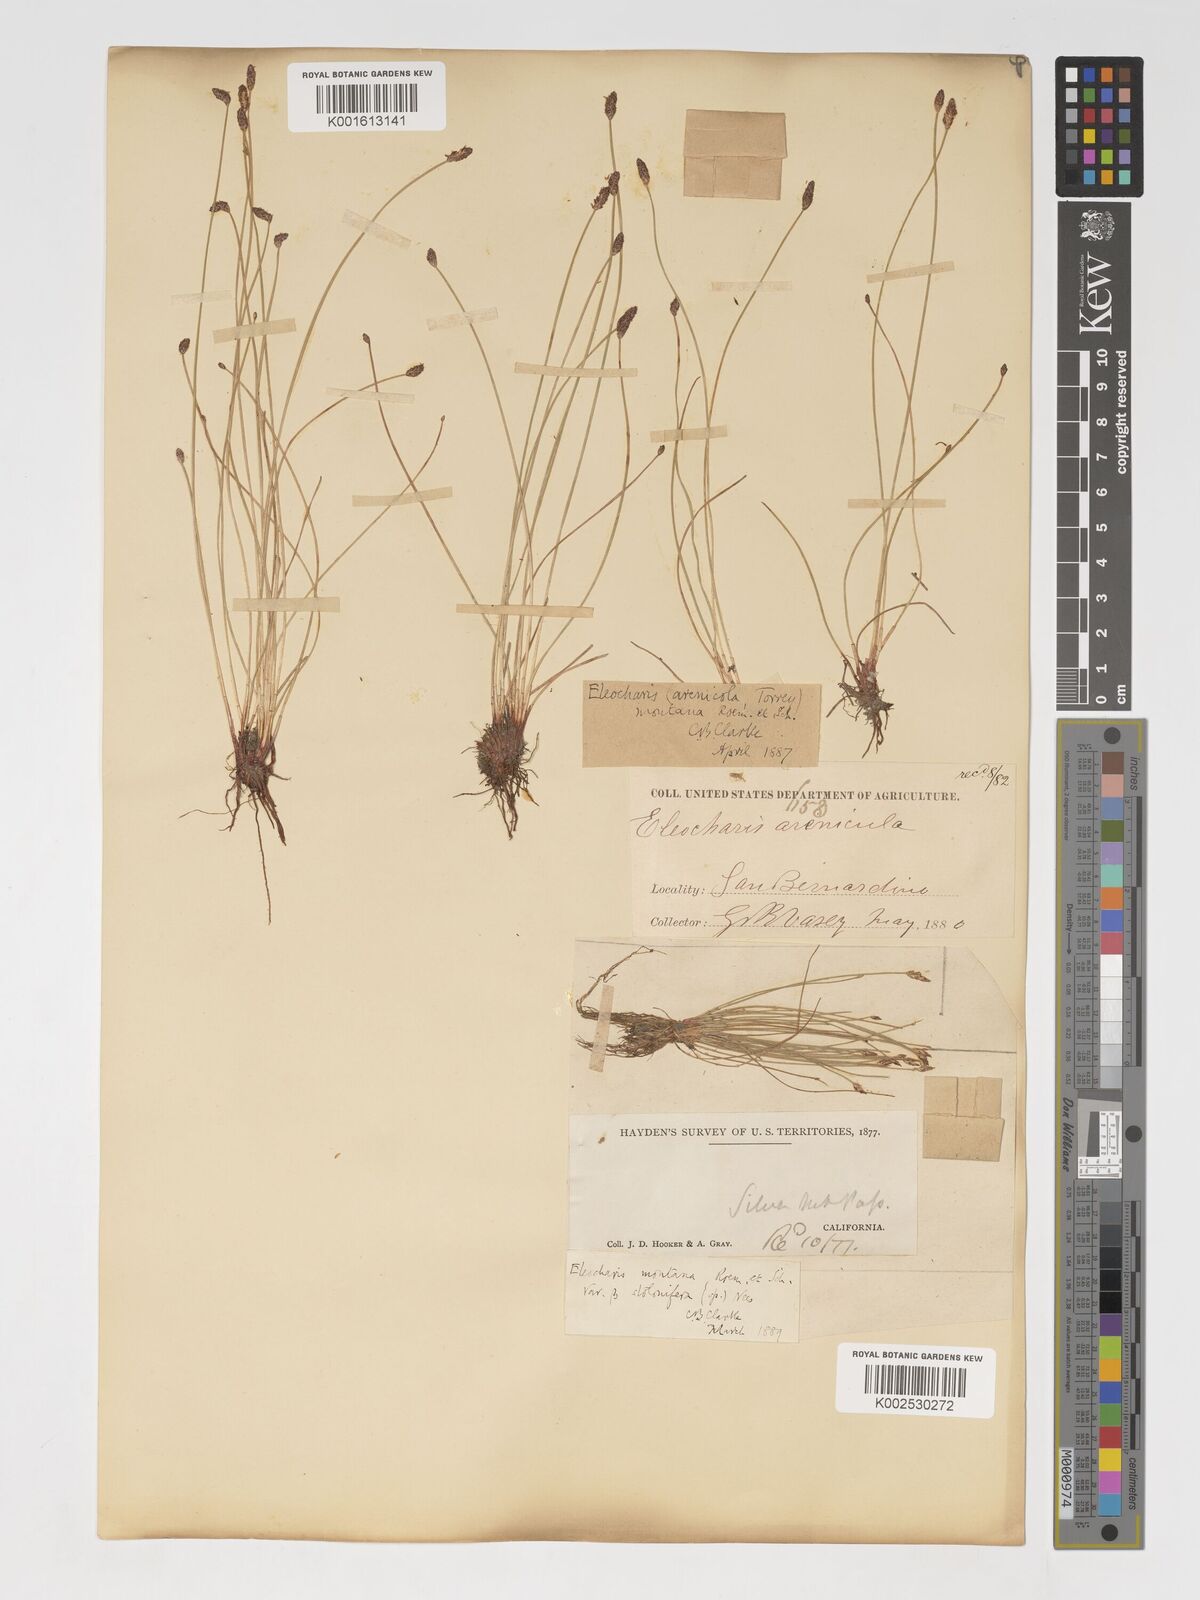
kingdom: Plantae
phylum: Tracheophyta
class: Liliopsida
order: Poales
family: Cyperaceae
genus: Eleocharis
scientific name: Eleocharis montana
